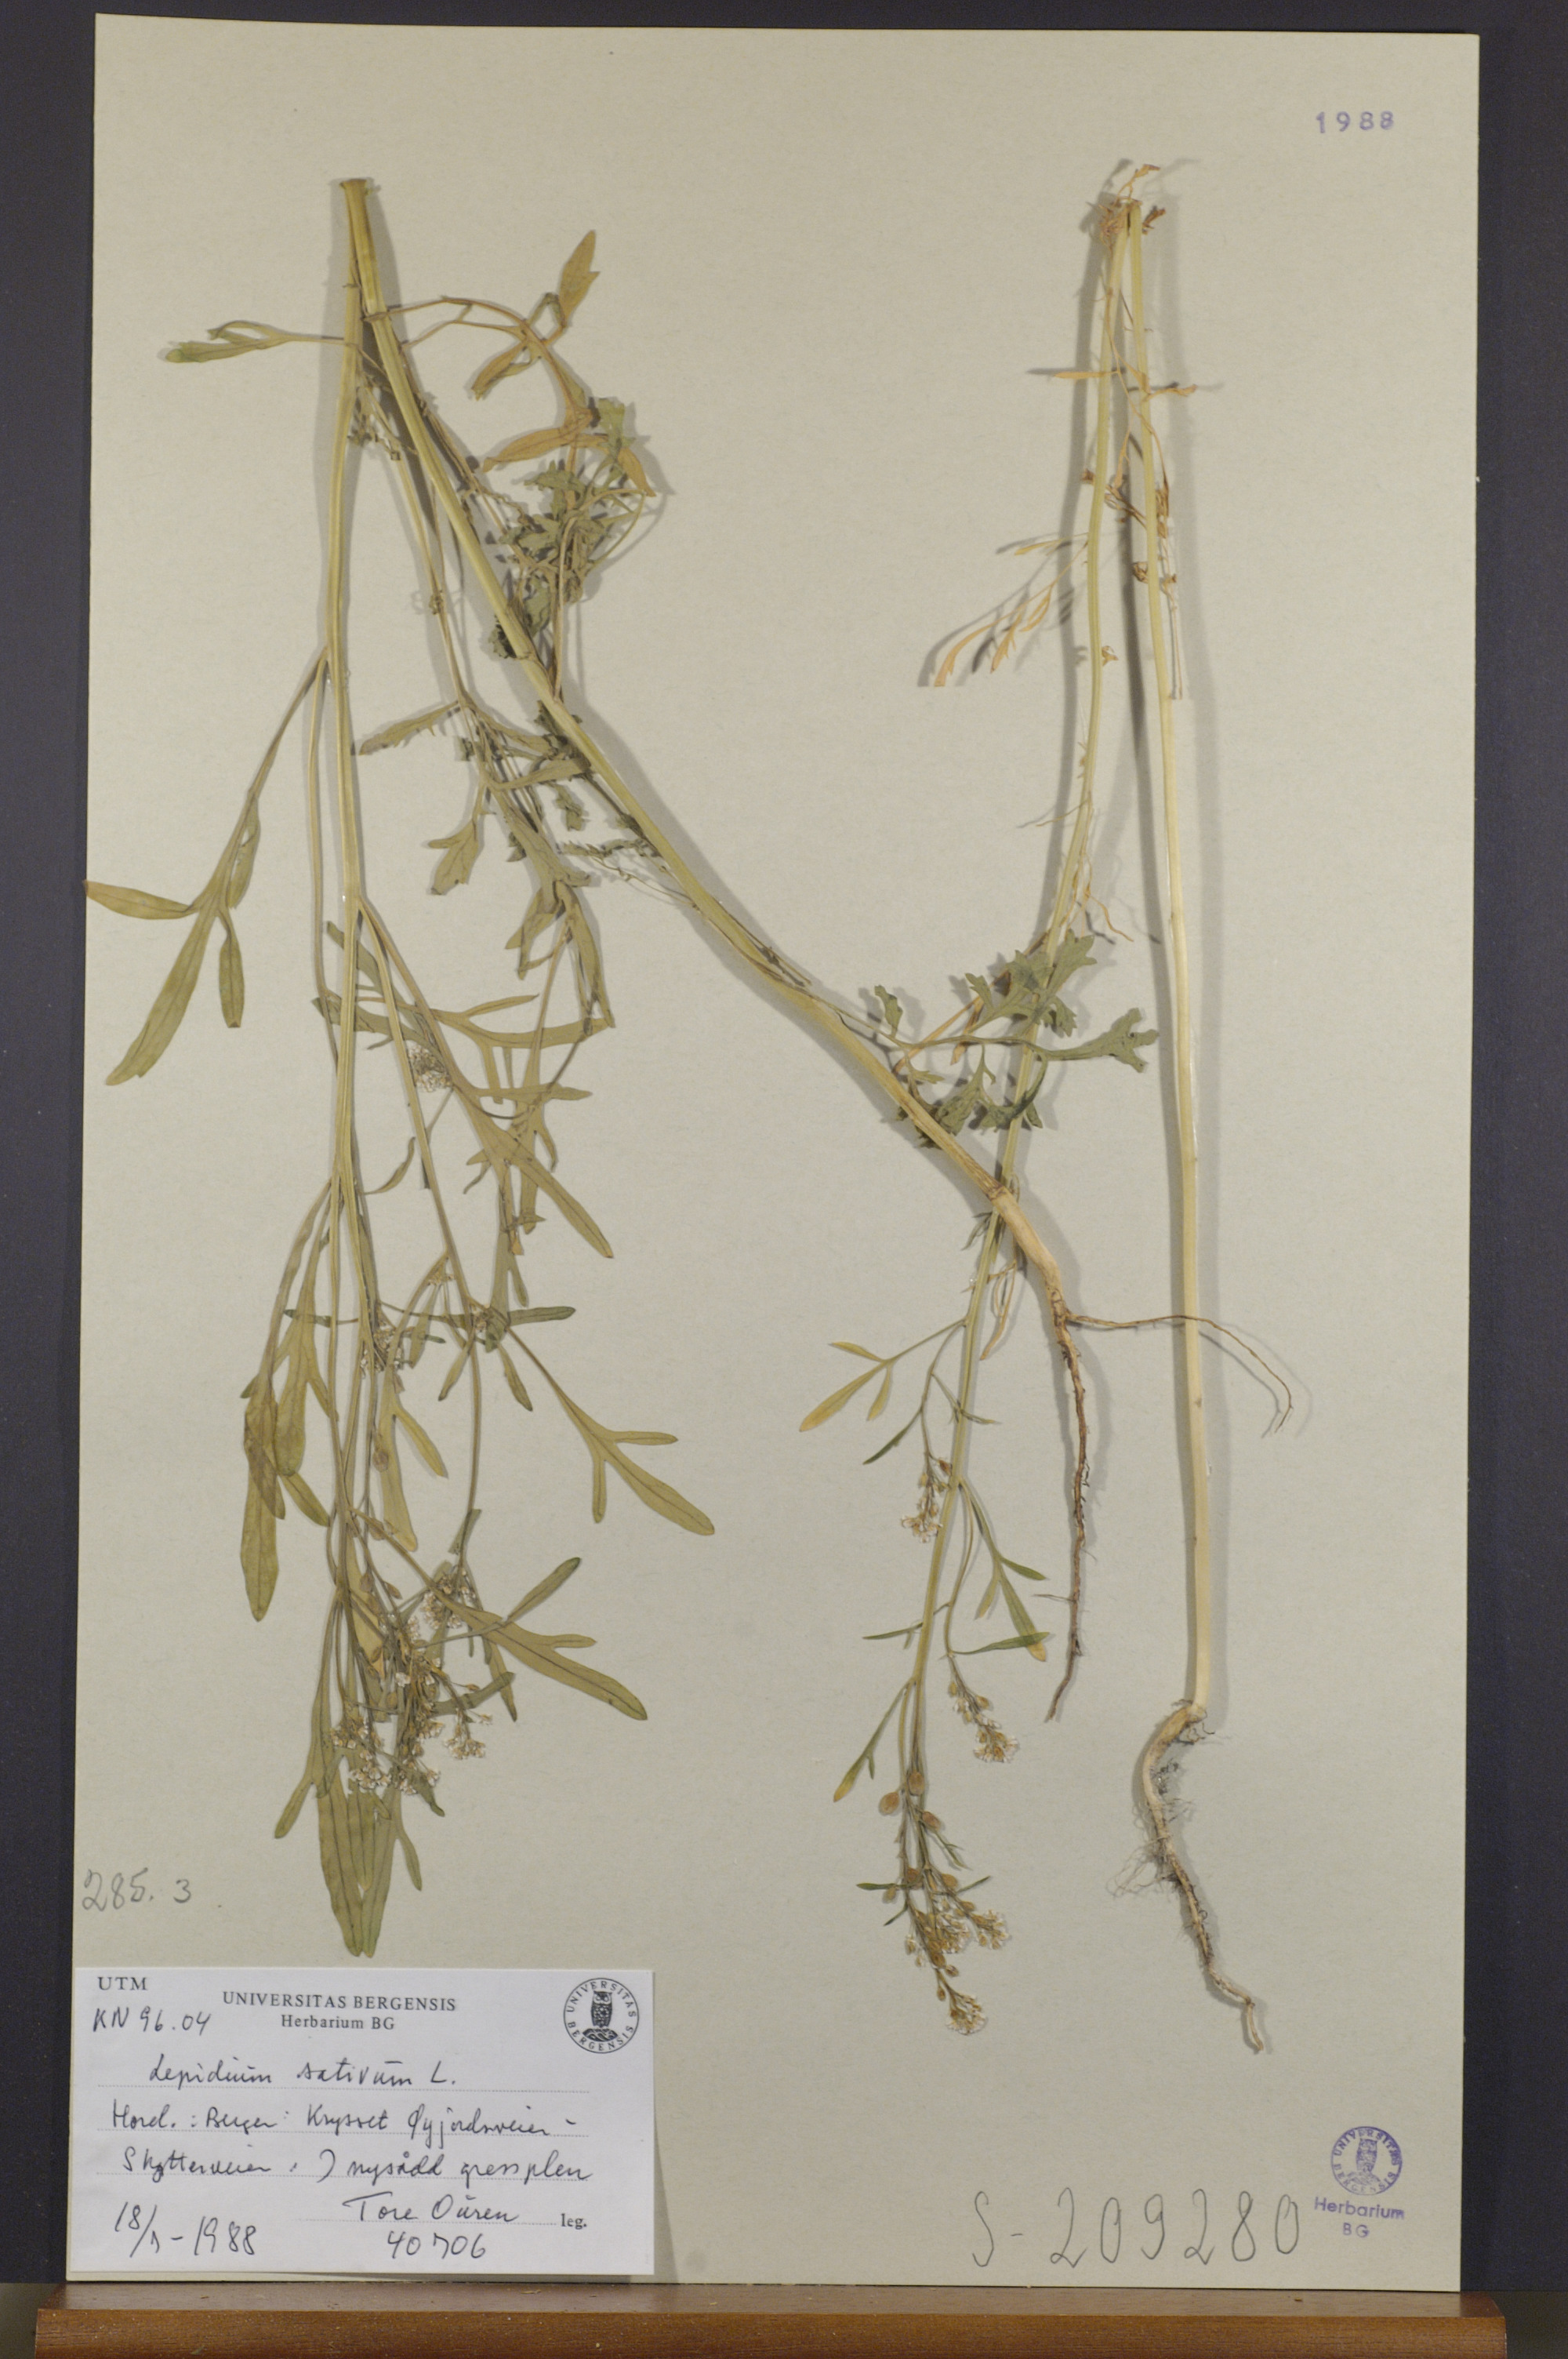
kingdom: Plantae
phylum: Tracheophyta
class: Magnoliopsida
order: Brassicales
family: Brassicaceae
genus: Lepidium
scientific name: Lepidium sativum
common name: Garden cress
